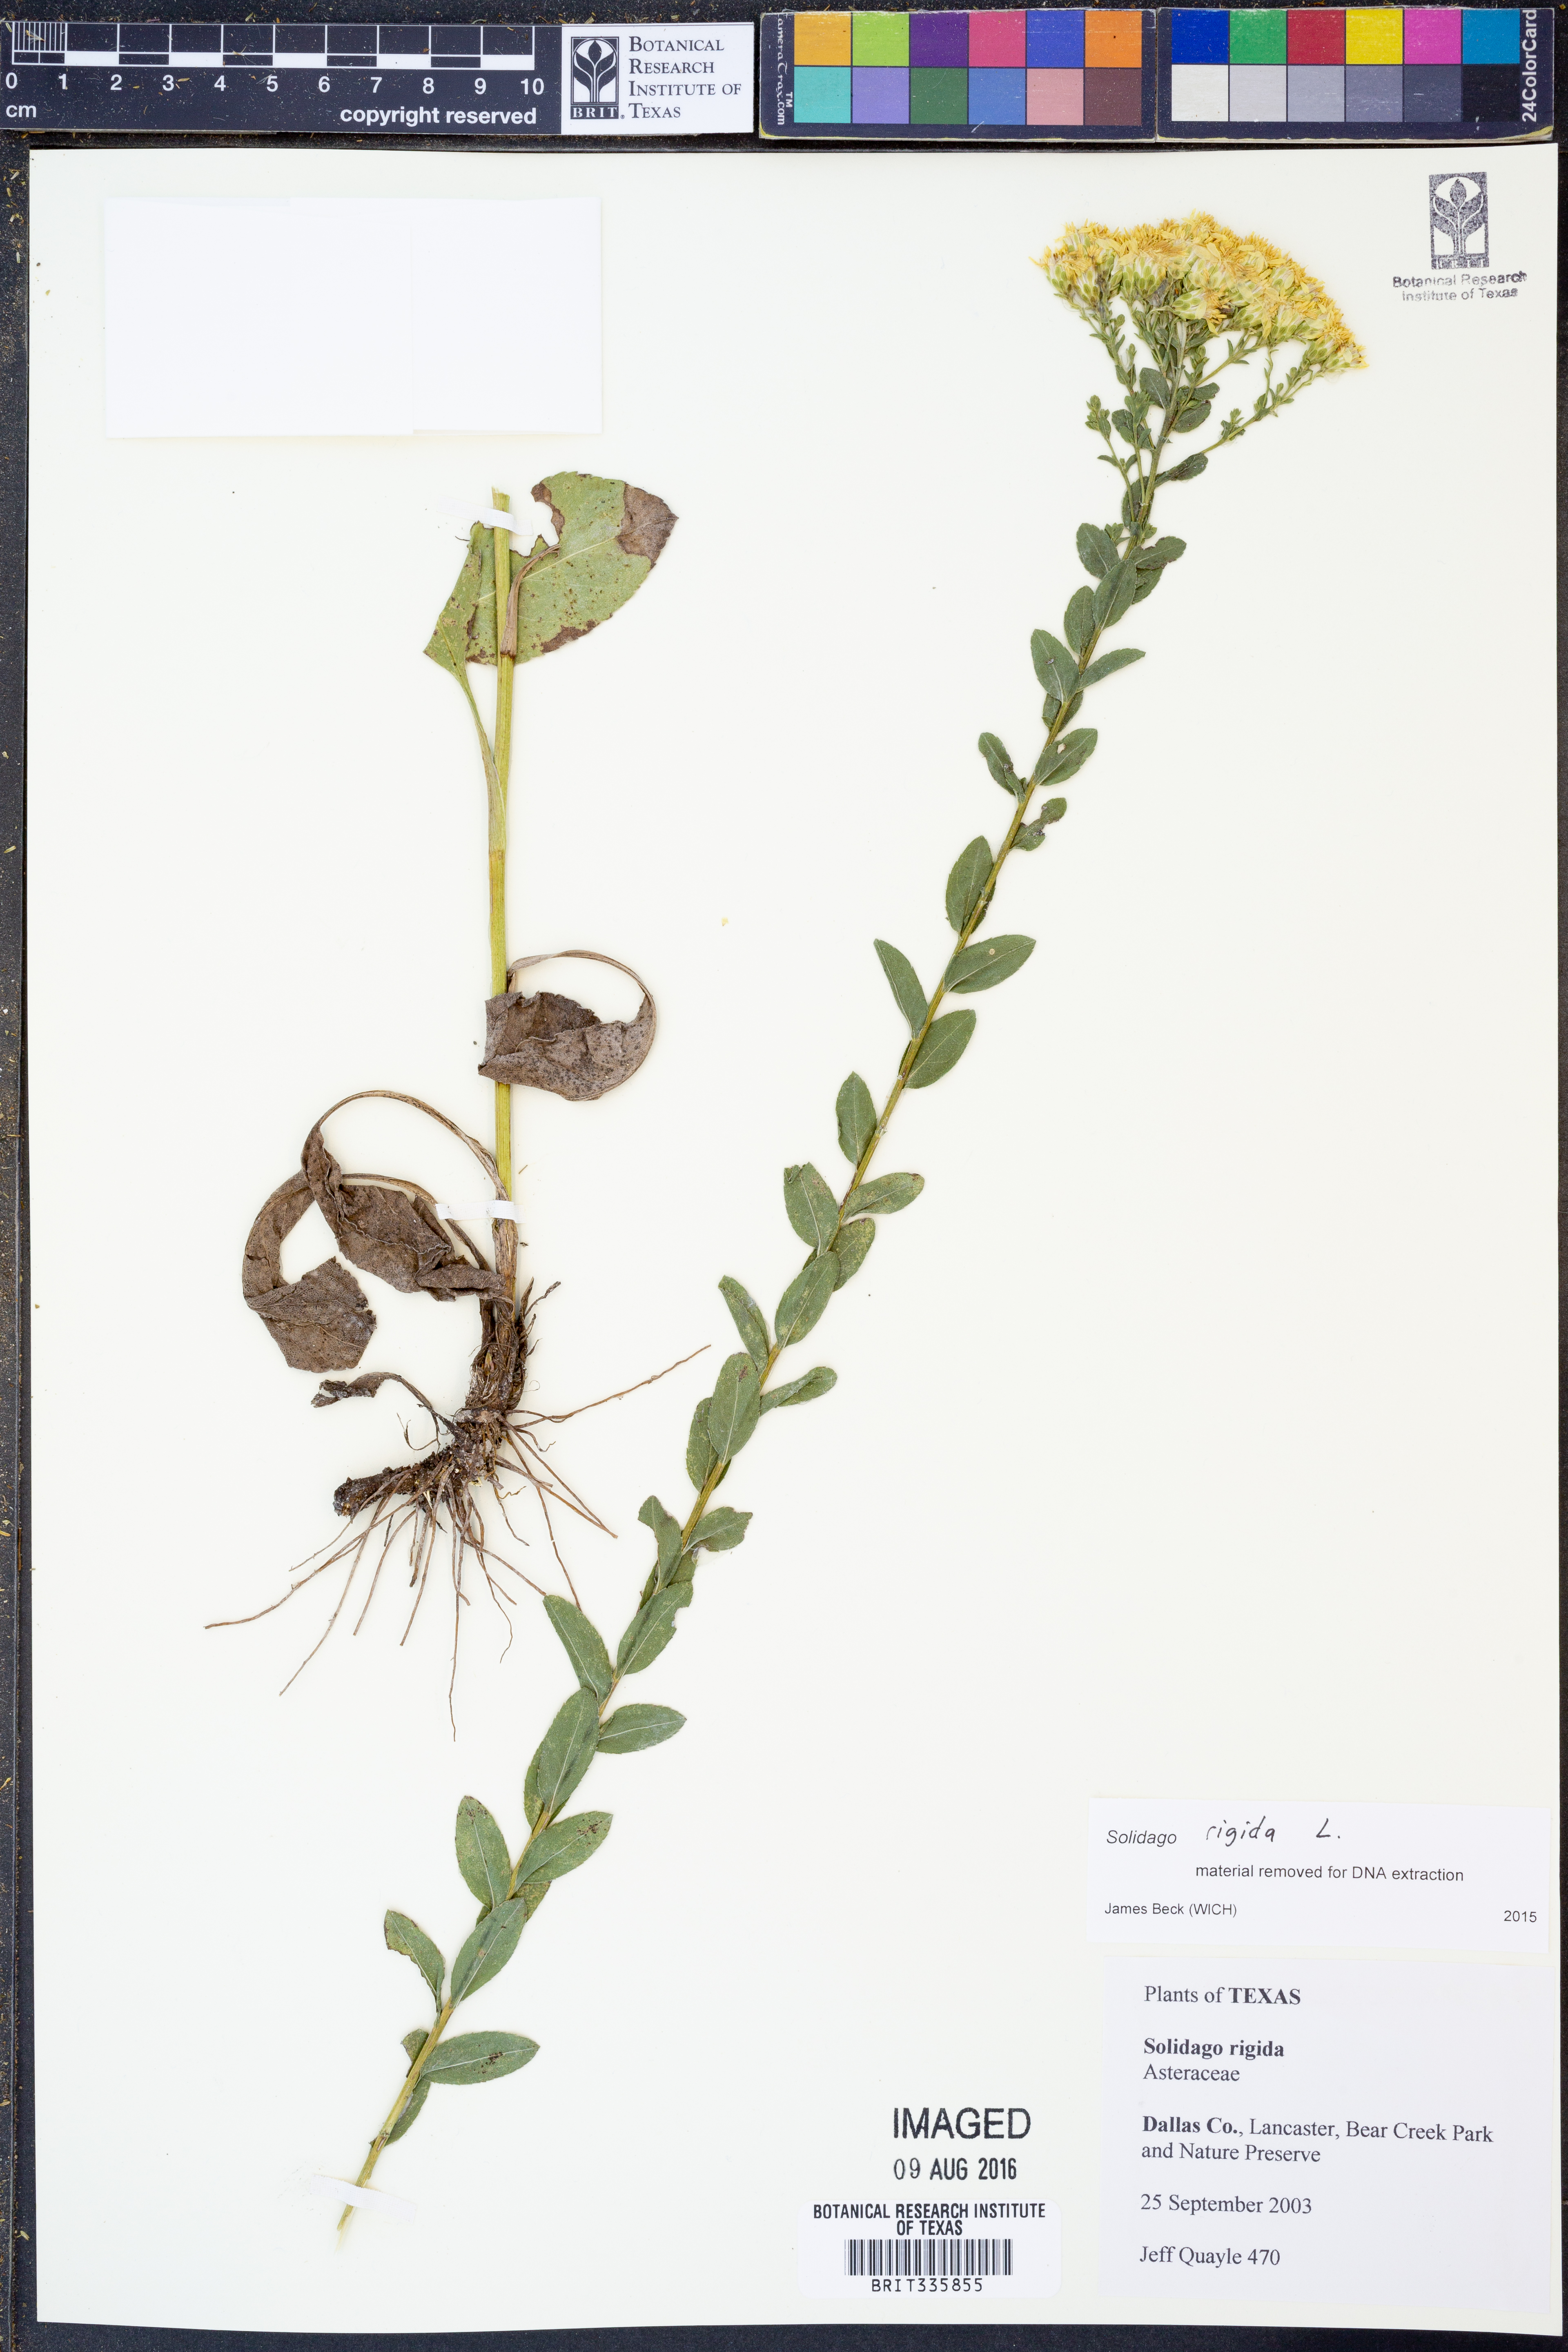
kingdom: Plantae
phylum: Tracheophyta
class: Magnoliopsida
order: Asterales
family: Asteraceae
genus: Solidago
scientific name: Solidago rigida
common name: Rigid goldenrod
